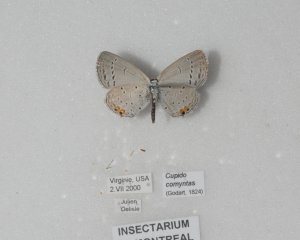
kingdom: Animalia
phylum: Arthropoda
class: Insecta
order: Lepidoptera
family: Lycaenidae
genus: Elkalyce
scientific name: Elkalyce comyntas
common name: Eastern Tailed-Blue
